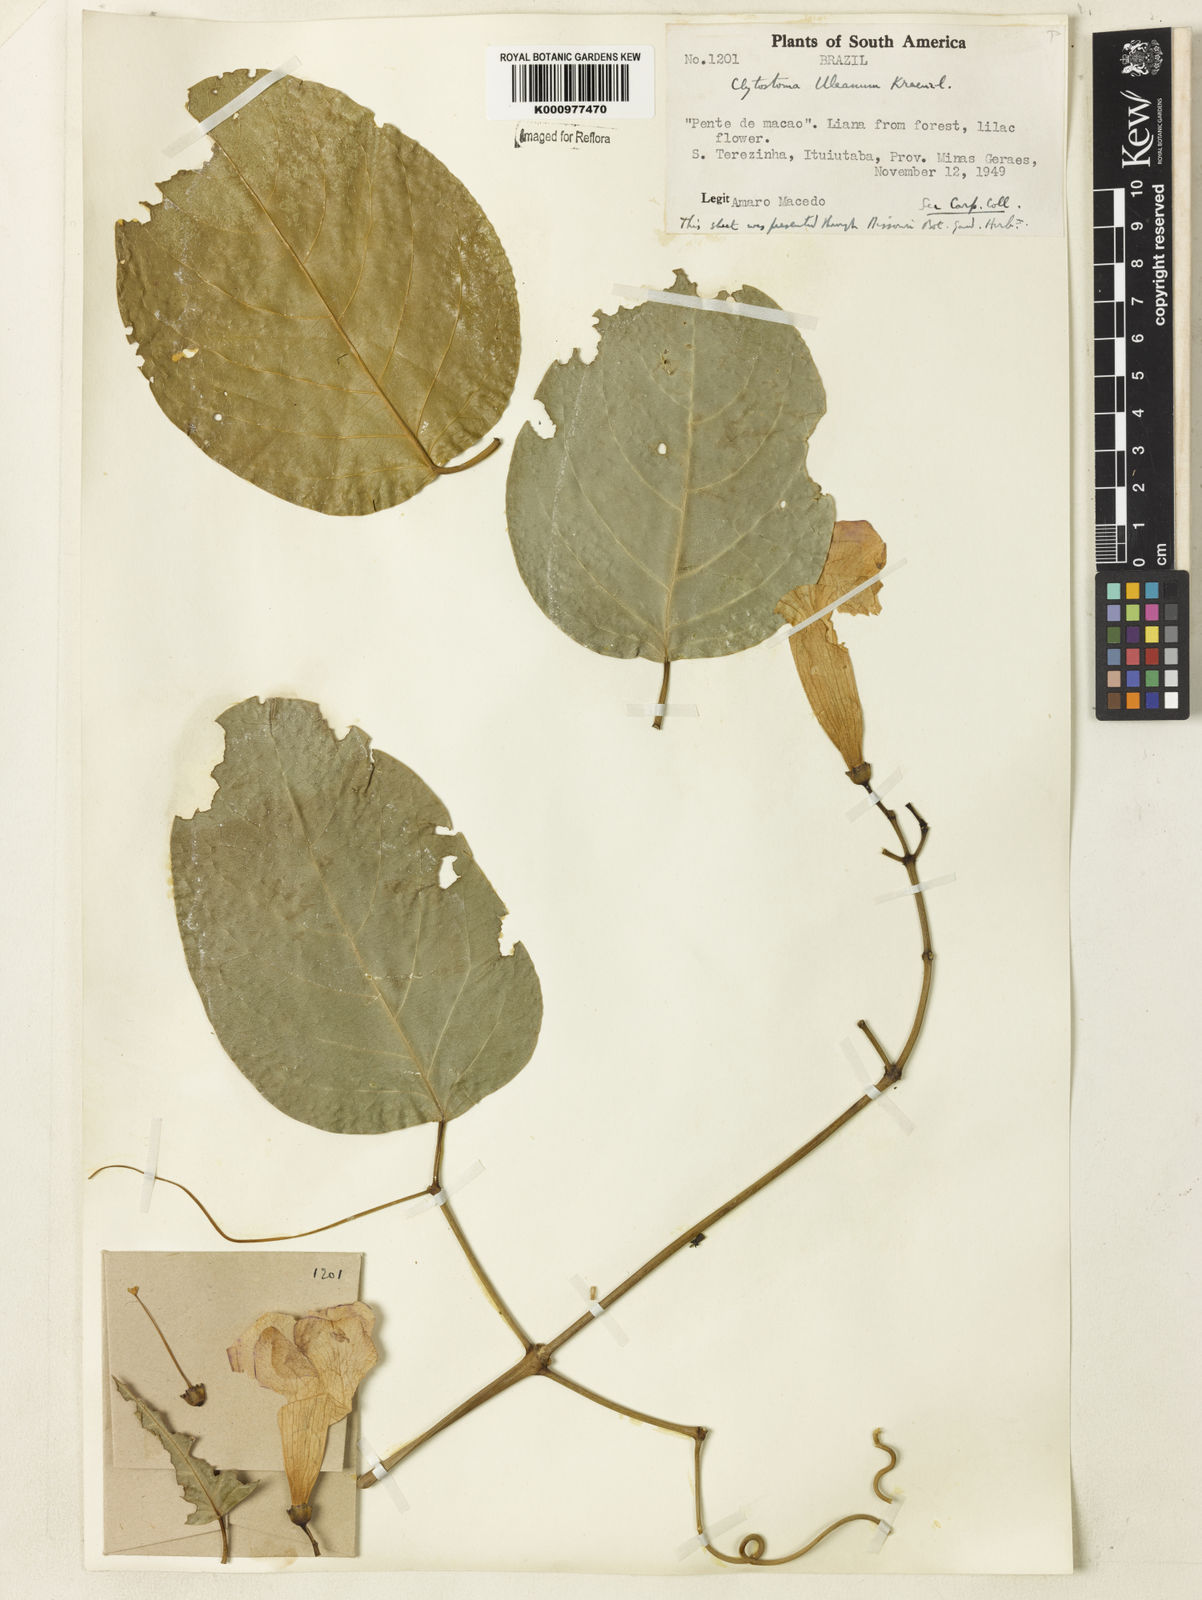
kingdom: Plantae
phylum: Tracheophyta
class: Magnoliopsida
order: Lamiales
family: Bignoniaceae
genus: Bignonia
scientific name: Bignonia uleana
